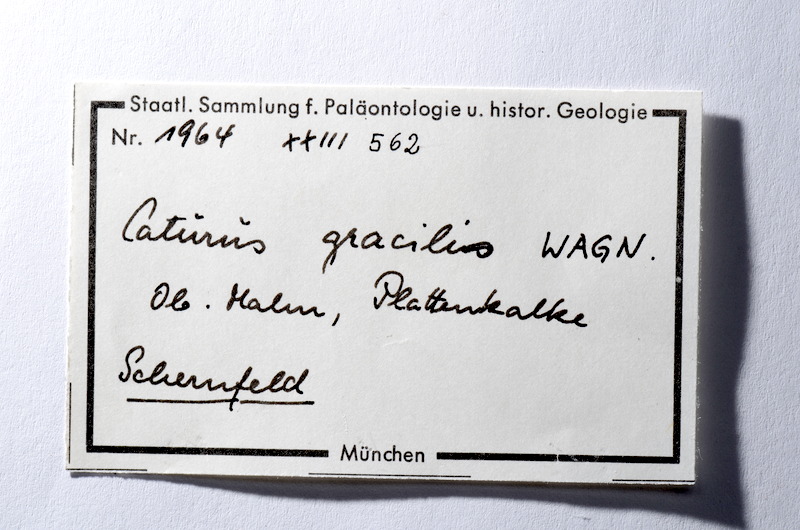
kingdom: Animalia
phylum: Chordata
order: Amiiformes
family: Caturidae
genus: Caturus
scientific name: Caturus furcatus
